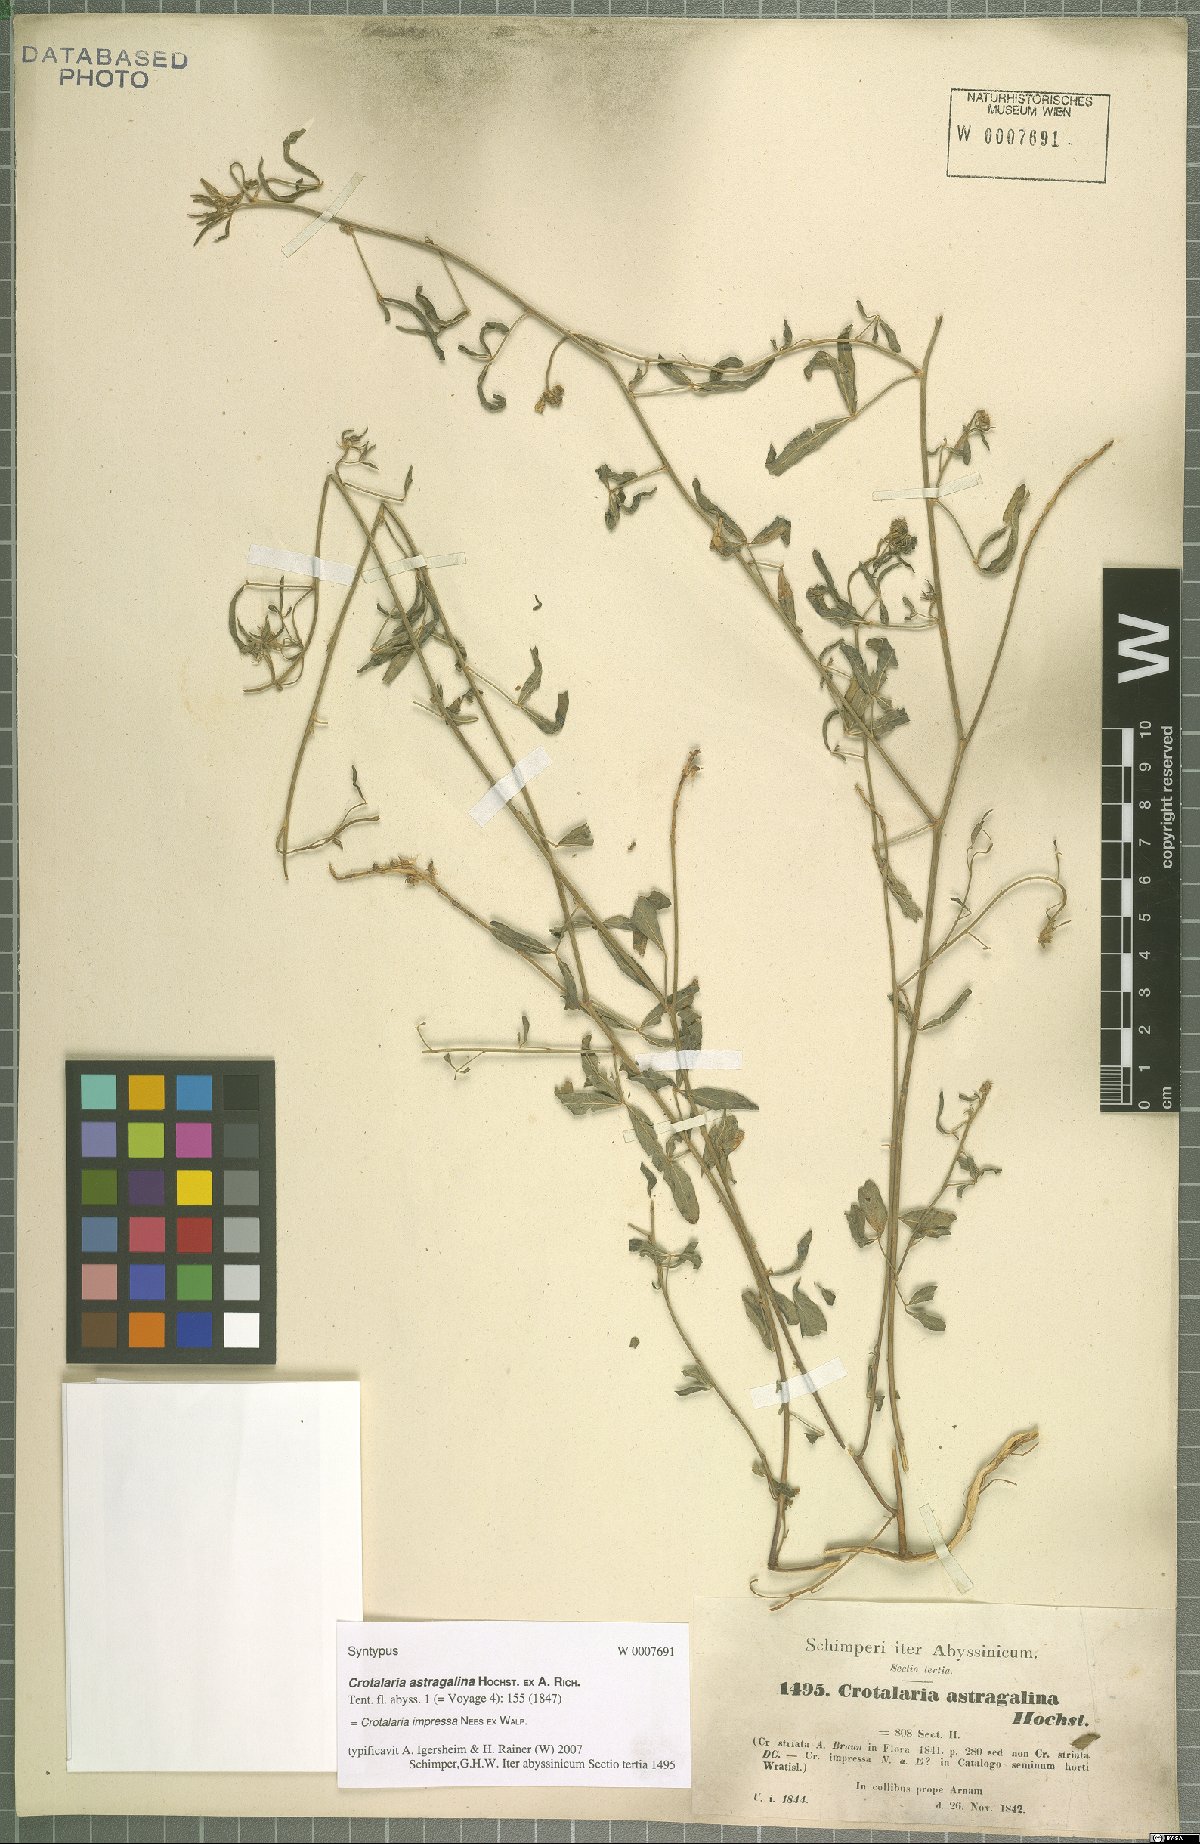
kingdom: Plantae
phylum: Tracheophyta
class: Magnoliopsida
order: Fabales
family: Fabaceae
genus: Crotalaria
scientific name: Crotalaria impressa
